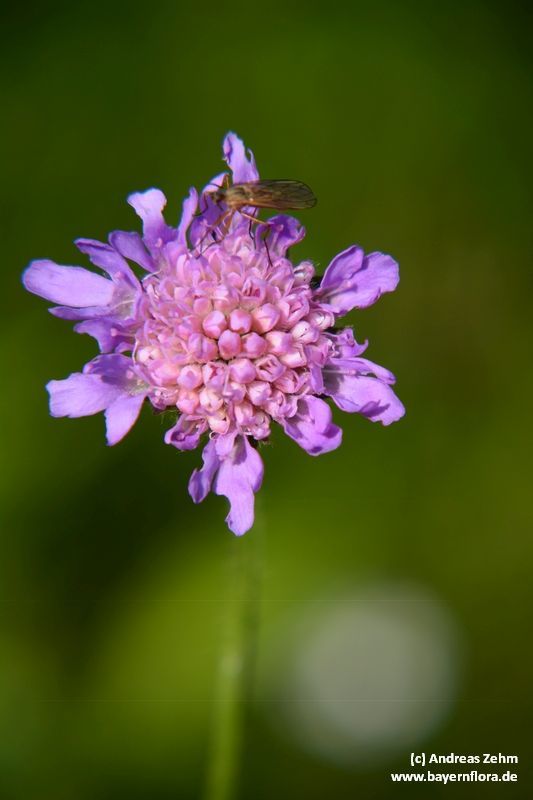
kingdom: Plantae
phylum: Tracheophyta
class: Magnoliopsida
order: Dipsacales
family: Caprifoliaceae
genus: Knautia
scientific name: Knautia arvensis
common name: Field scabiosa
